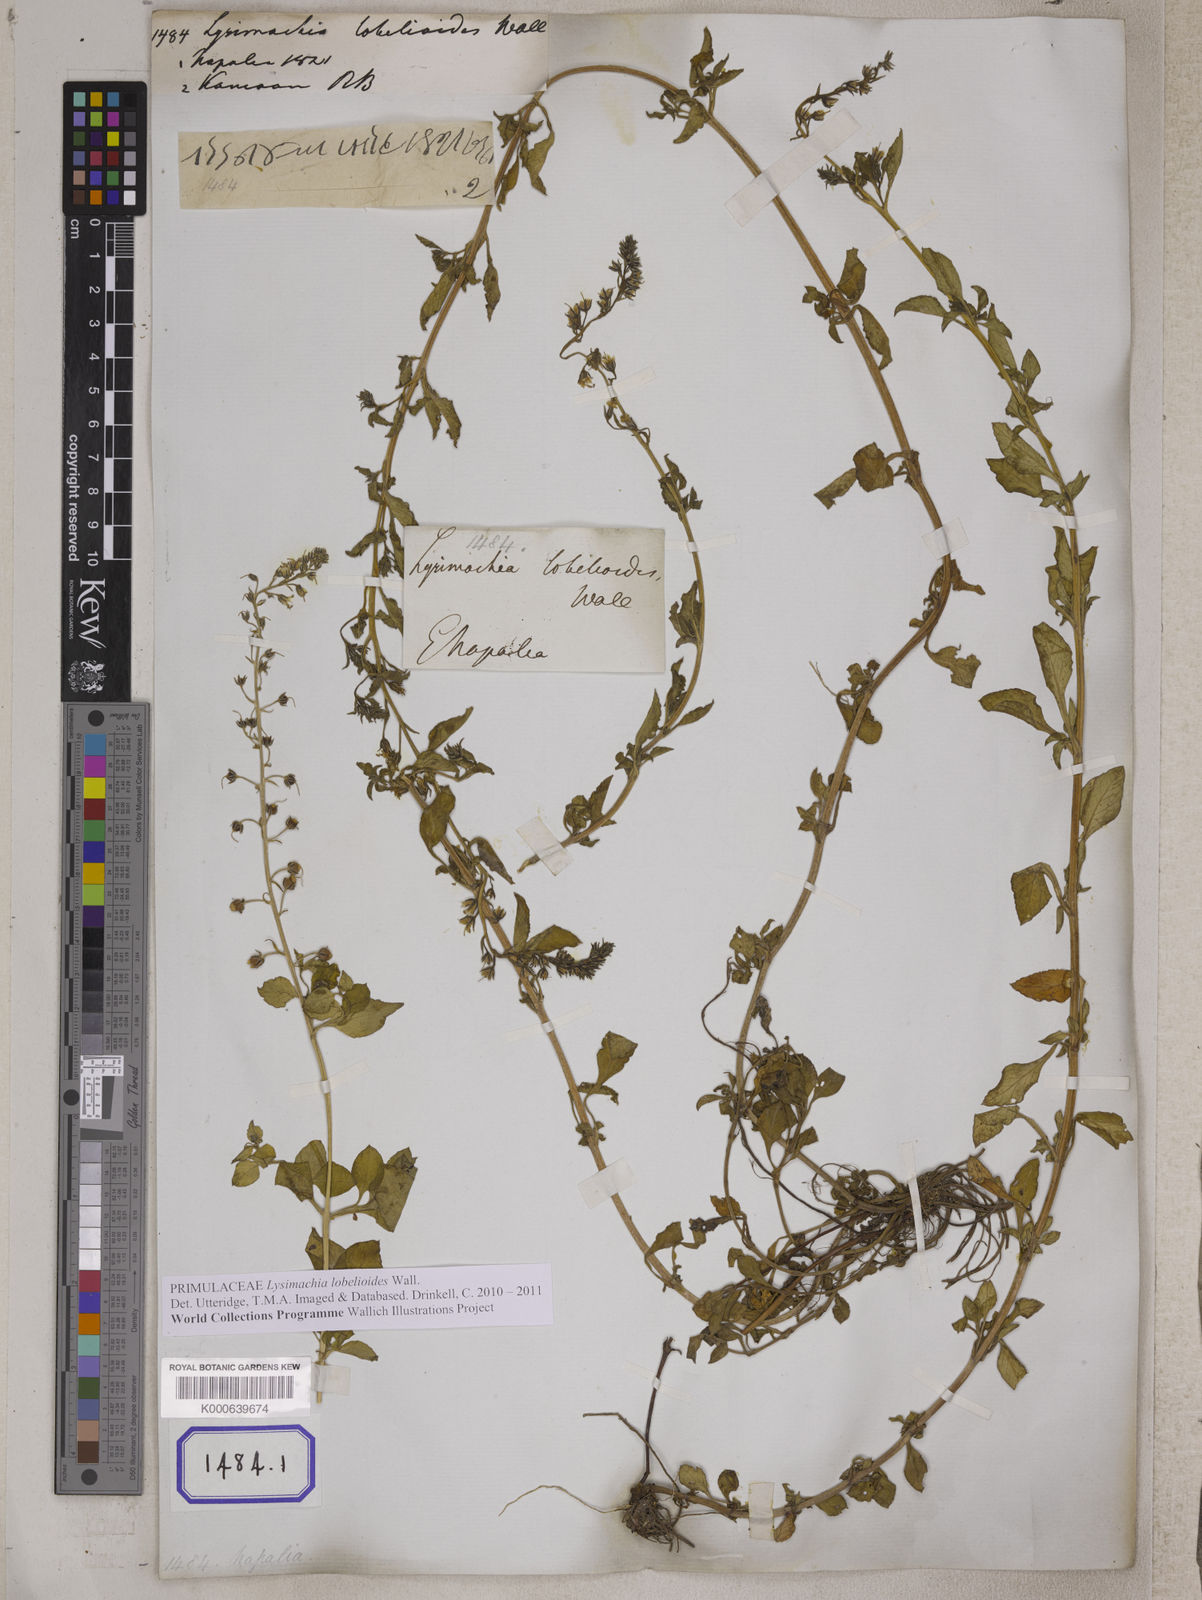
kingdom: Plantae
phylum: Tracheophyta
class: Magnoliopsida
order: Ericales
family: Primulaceae
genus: Lysimachia
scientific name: Lysimachia lobelioides
